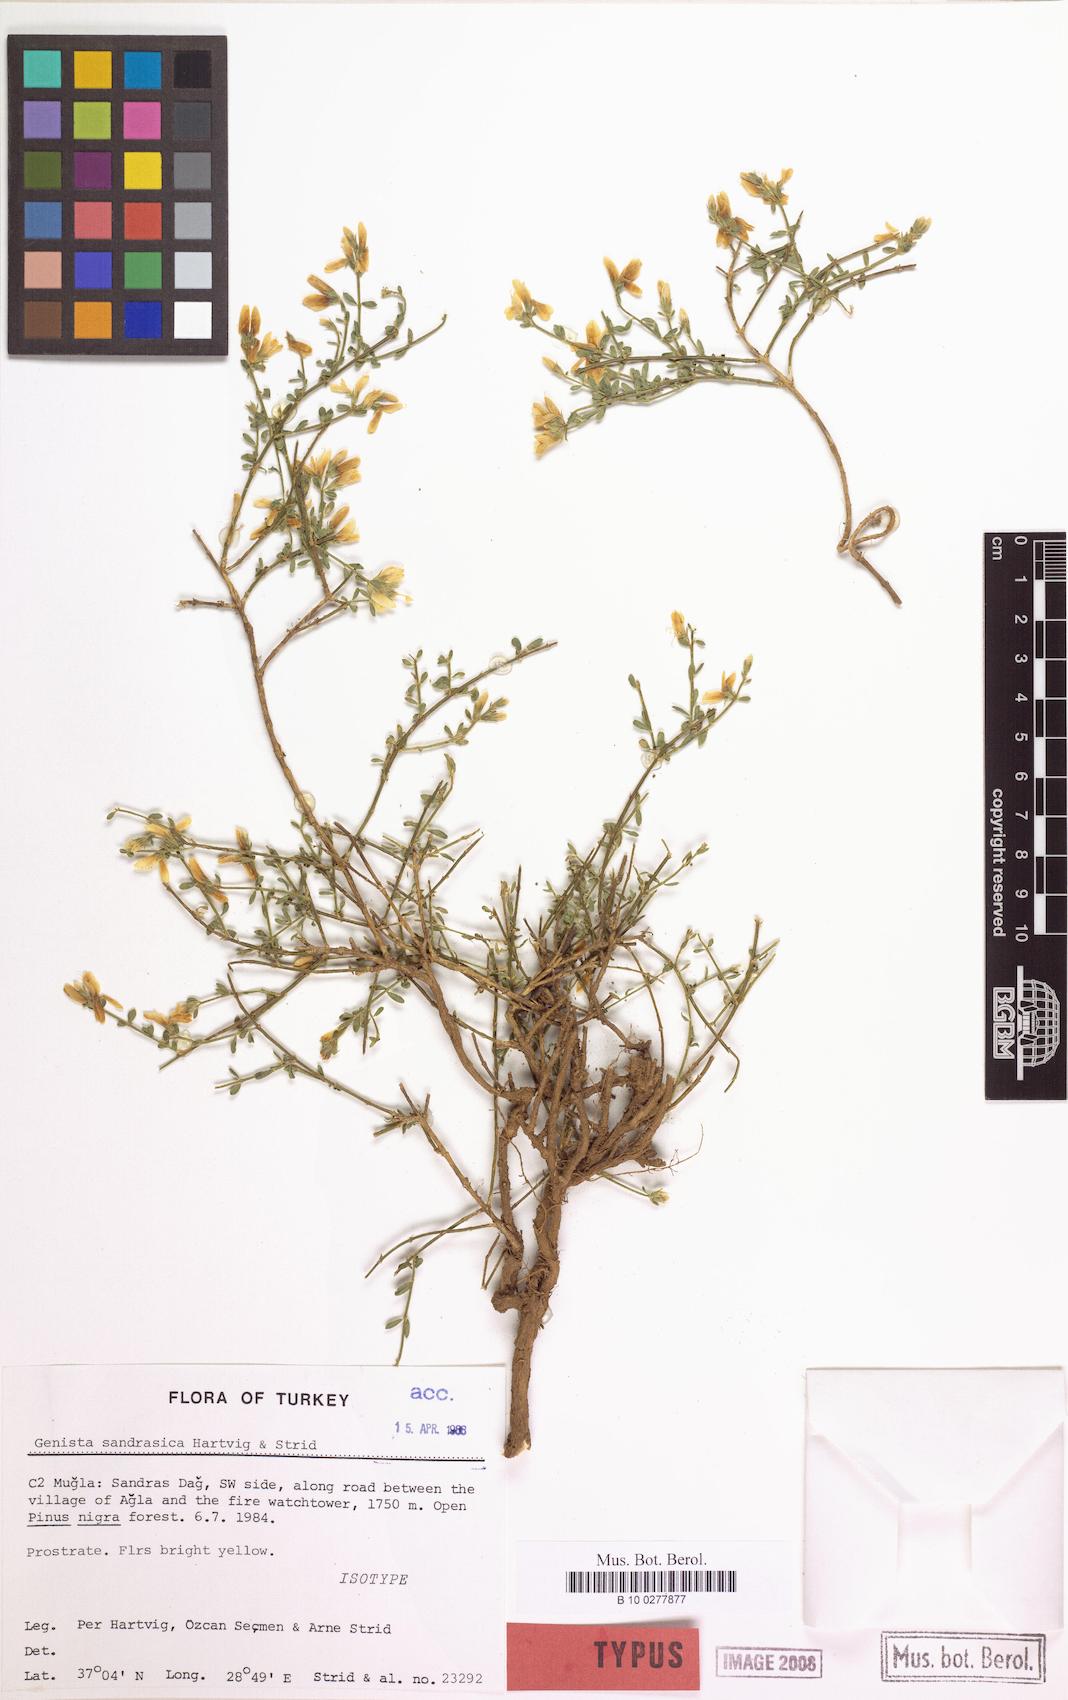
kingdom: Plantae
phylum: Tracheophyta
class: Magnoliopsida
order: Fabales
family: Fabaceae
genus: Genista
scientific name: Genista sandrasica
